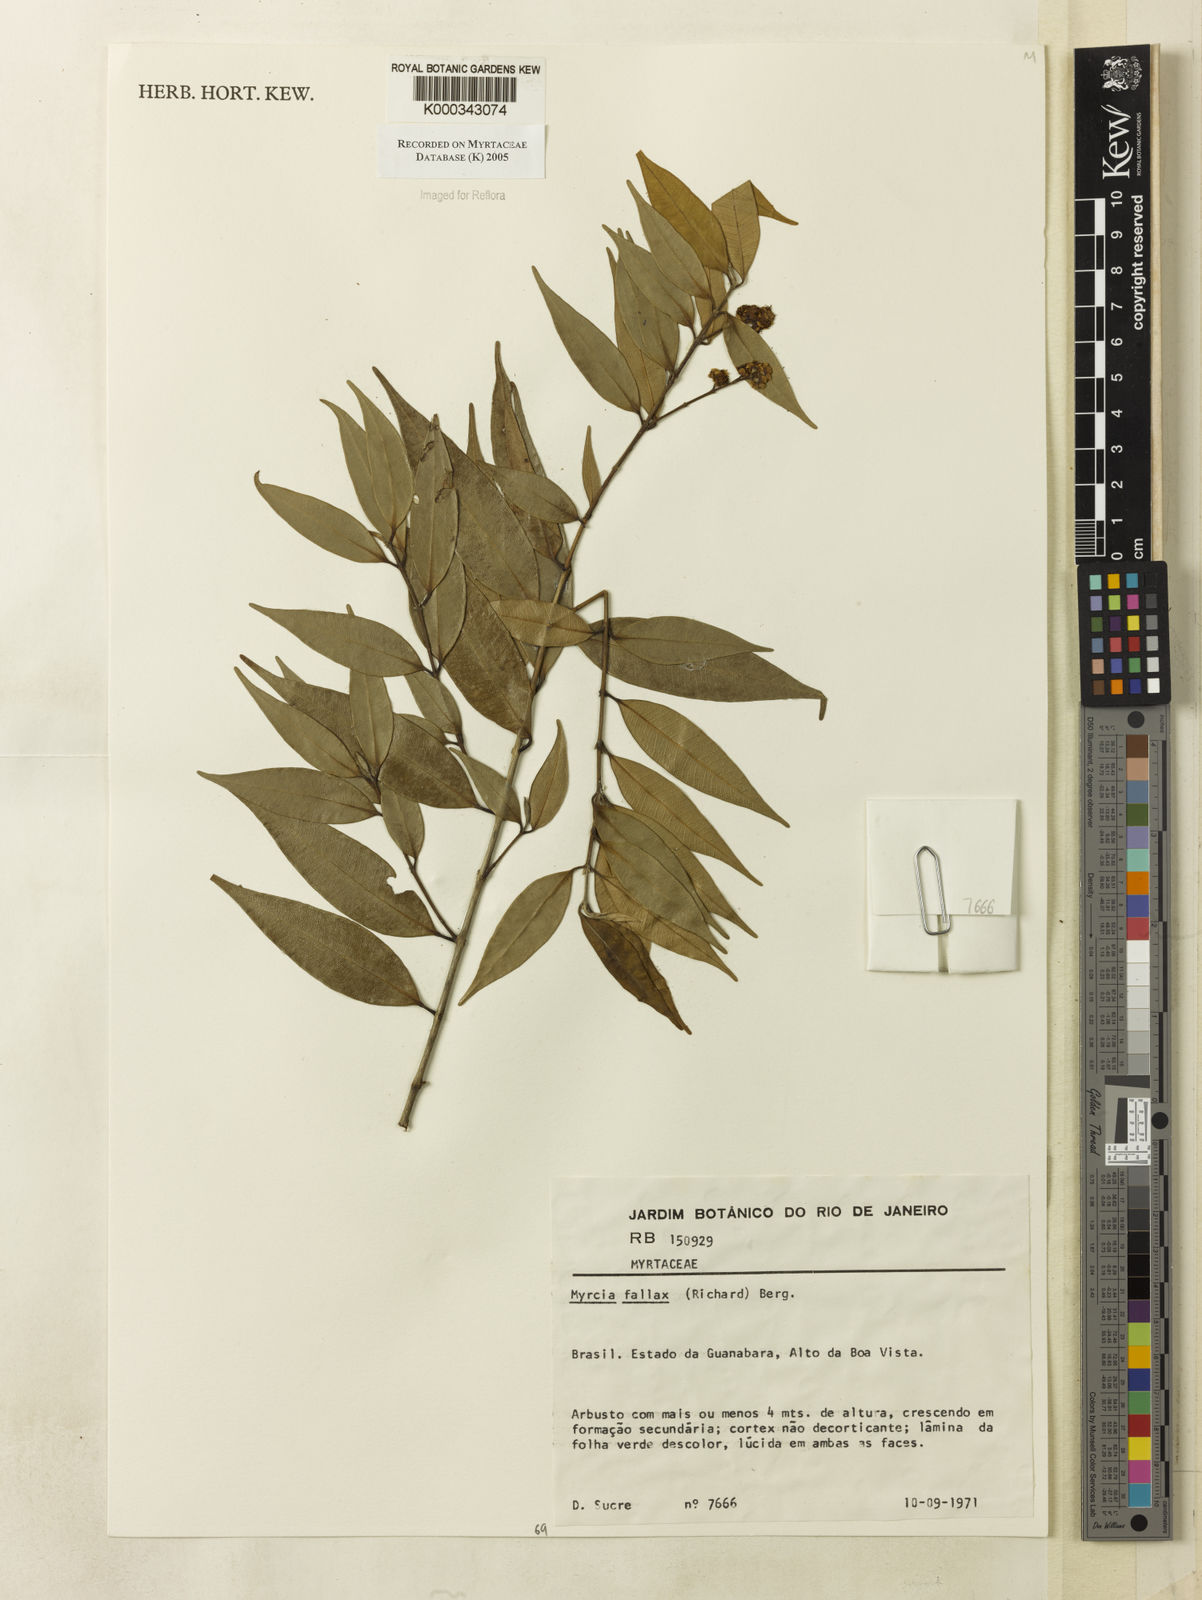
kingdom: Plantae
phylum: Tracheophyta
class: Magnoliopsida
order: Myrtales
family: Myrtaceae
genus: Myrcia
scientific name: Myrcia splendens
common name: Surinam cherry
